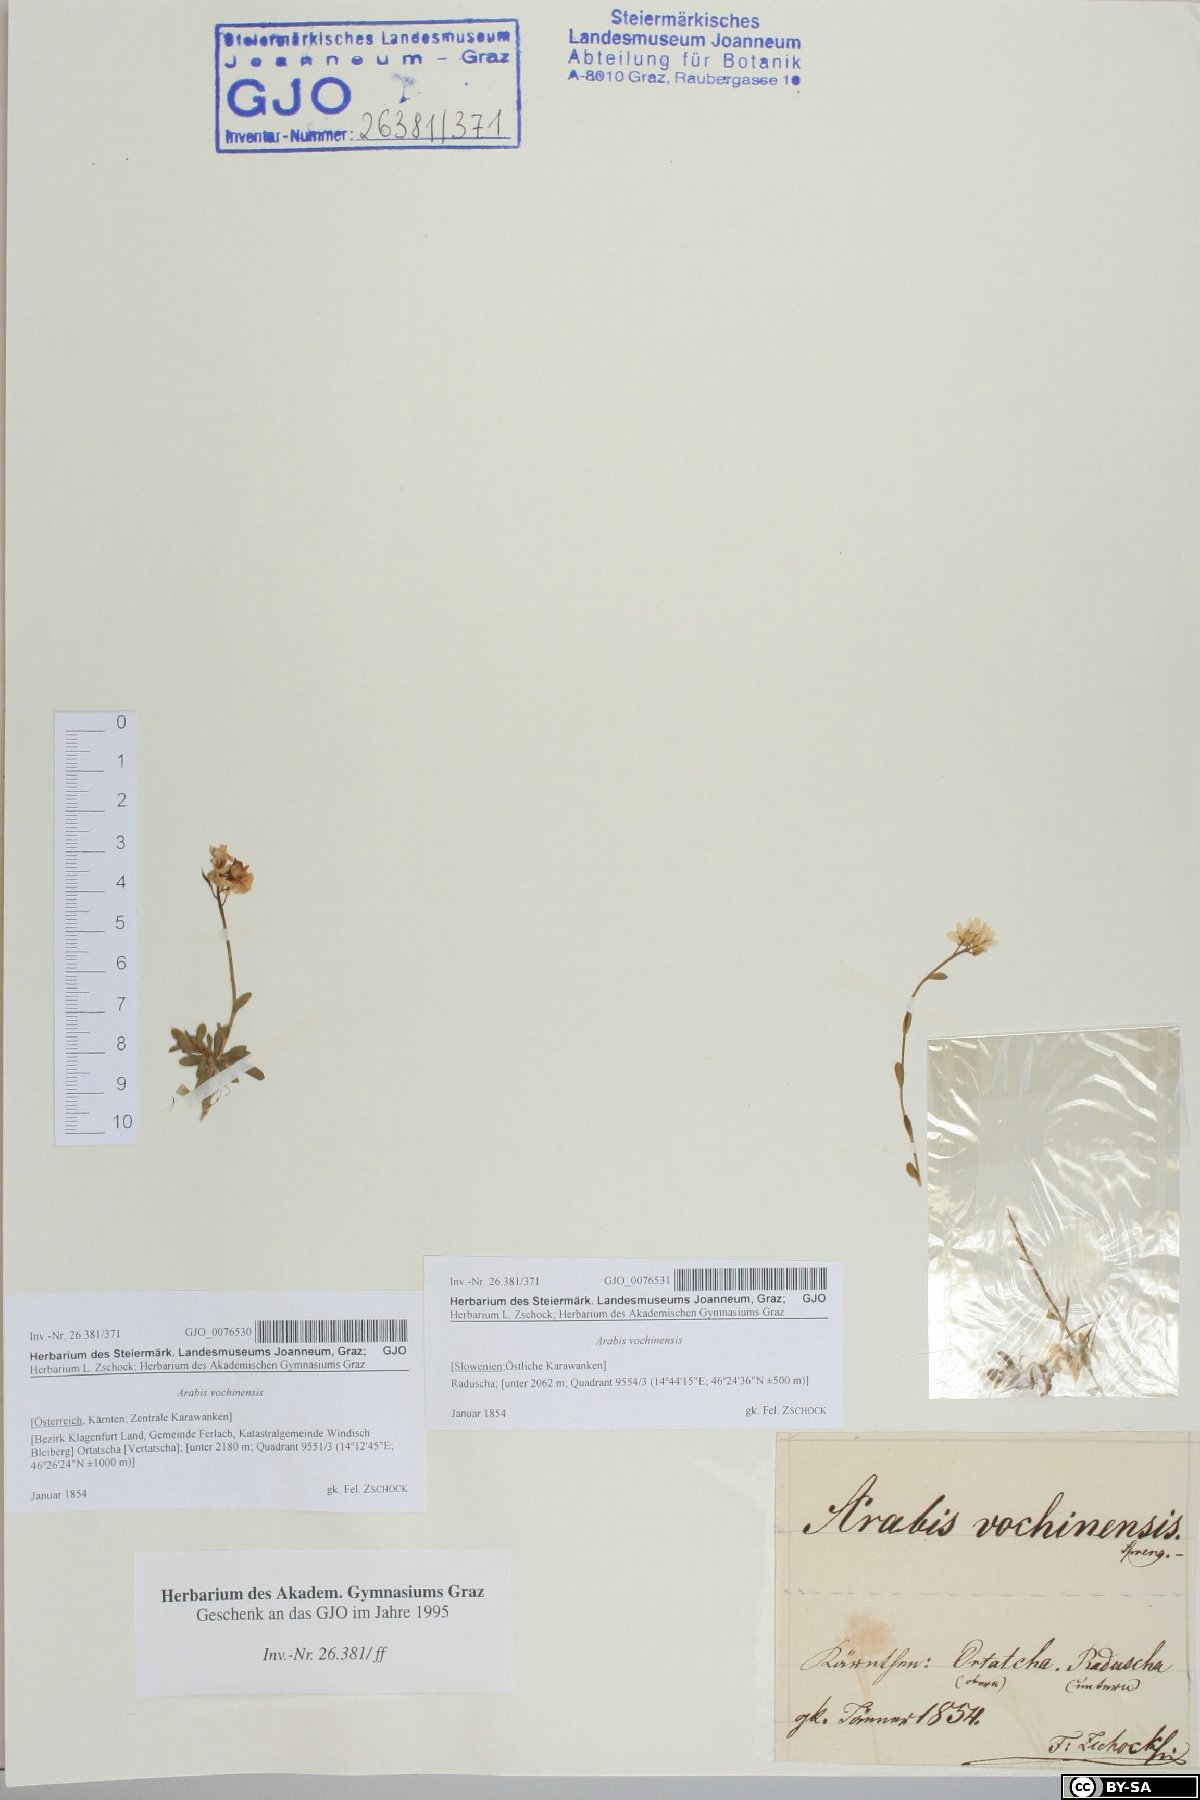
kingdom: Plantae
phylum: Tracheophyta
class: Magnoliopsida
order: Brassicales
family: Brassicaceae
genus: Arabis
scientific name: Arabis vochinensis
